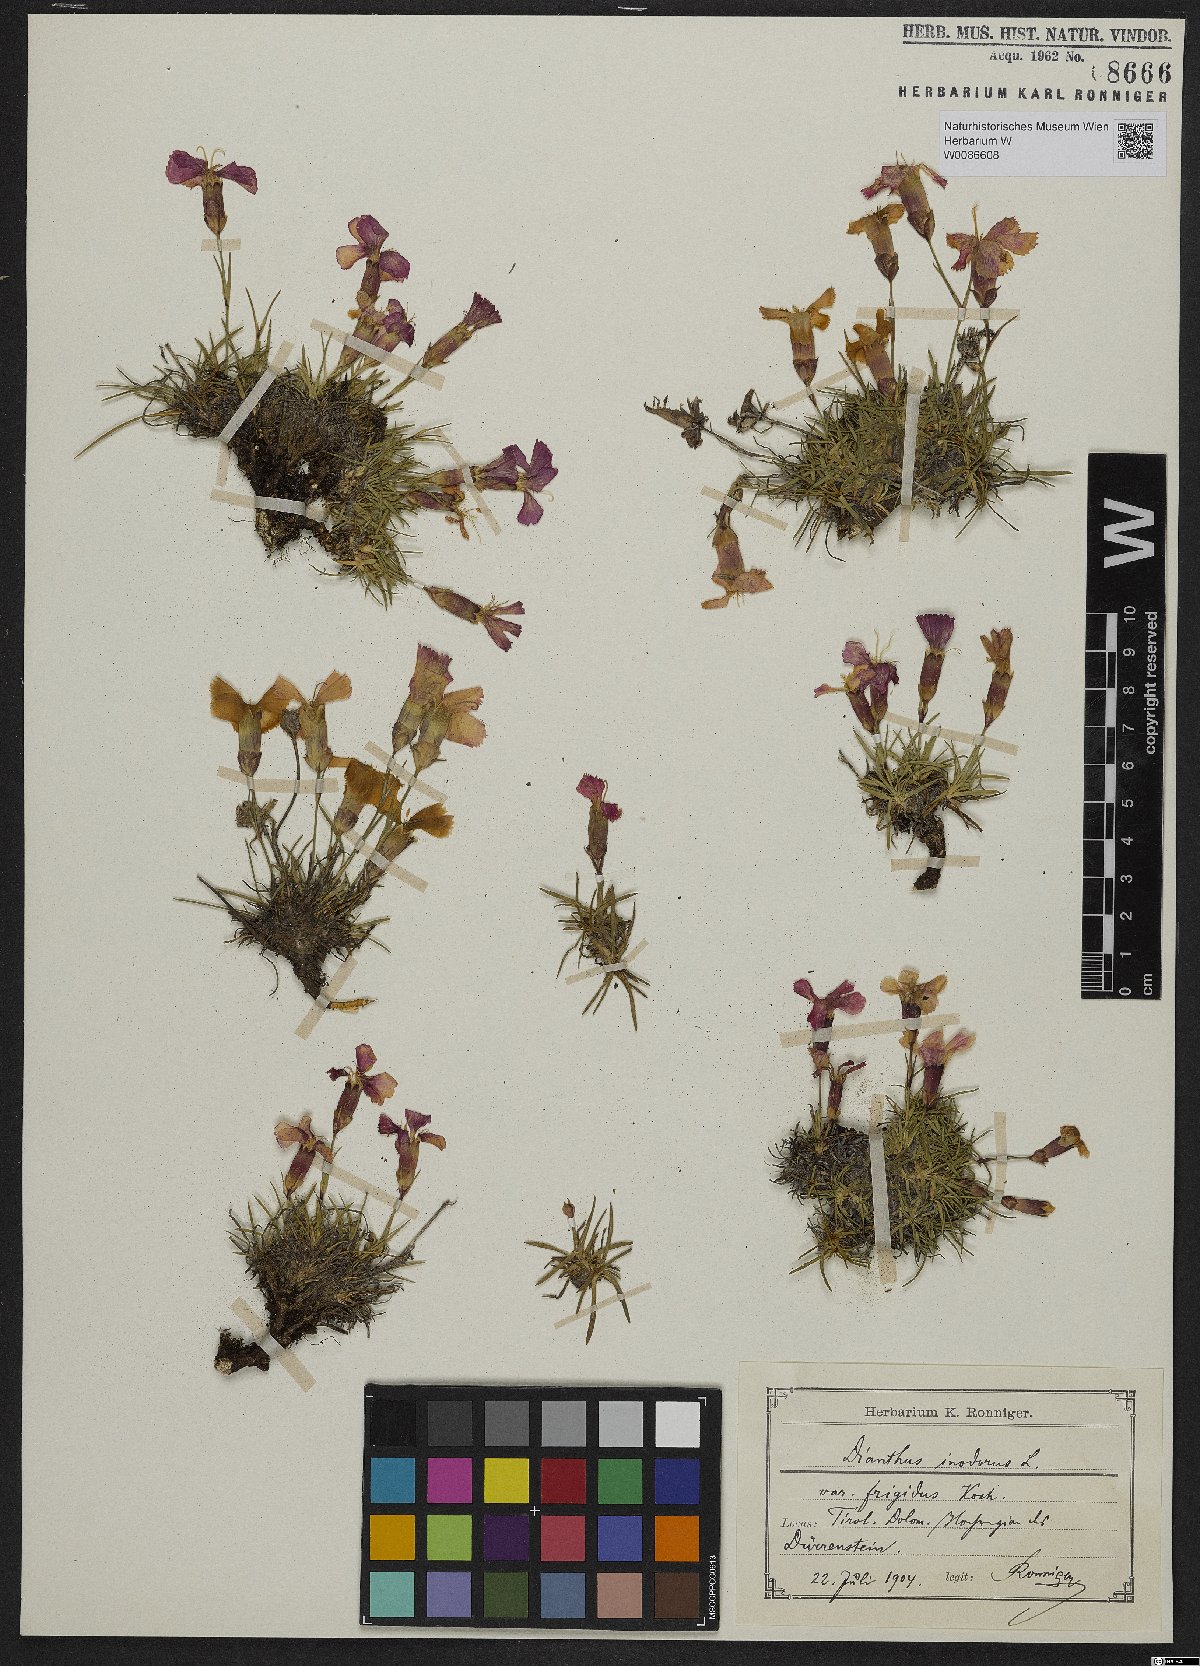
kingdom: Plantae
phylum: Tracheophyta
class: Magnoliopsida
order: Caryophyllales
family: Caryophyllaceae
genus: Dianthus
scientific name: Dianthus sylvestris
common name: Wood pink
